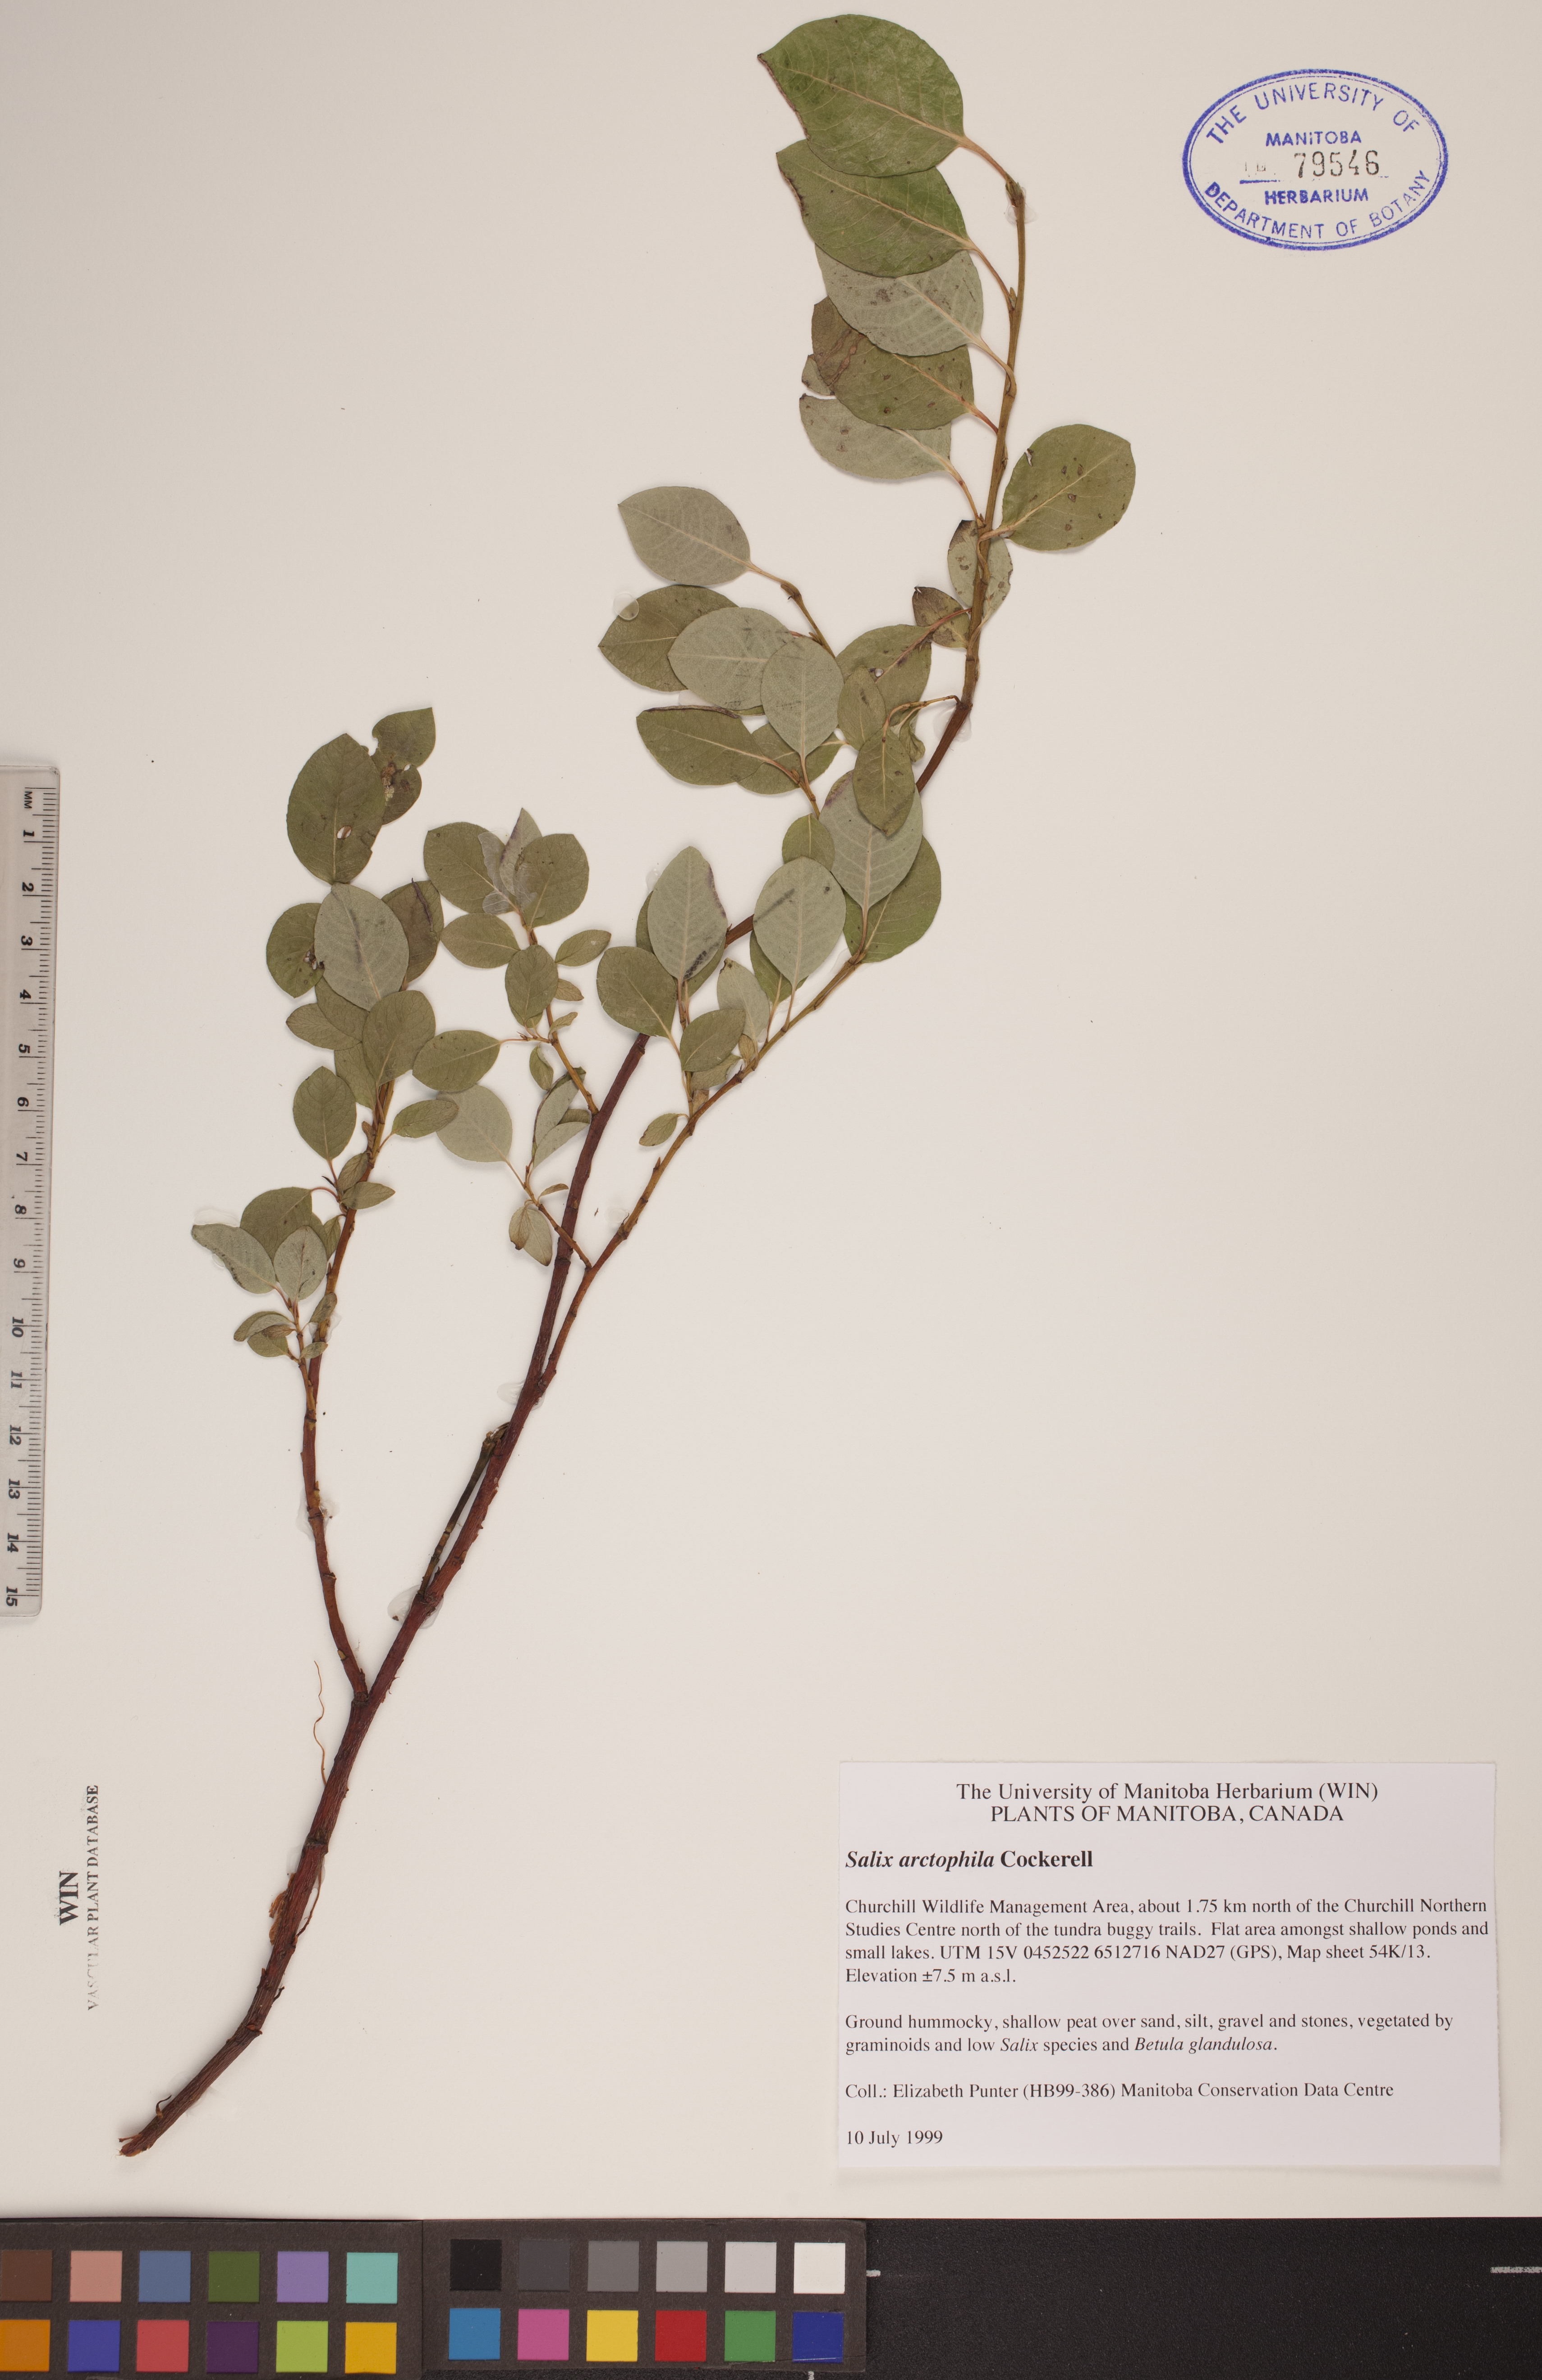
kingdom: Plantae
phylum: Tracheophyta
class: Magnoliopsida
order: Malpighiales
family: Salicaceae
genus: Salix
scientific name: Salix arctophila
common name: Greenland willow
